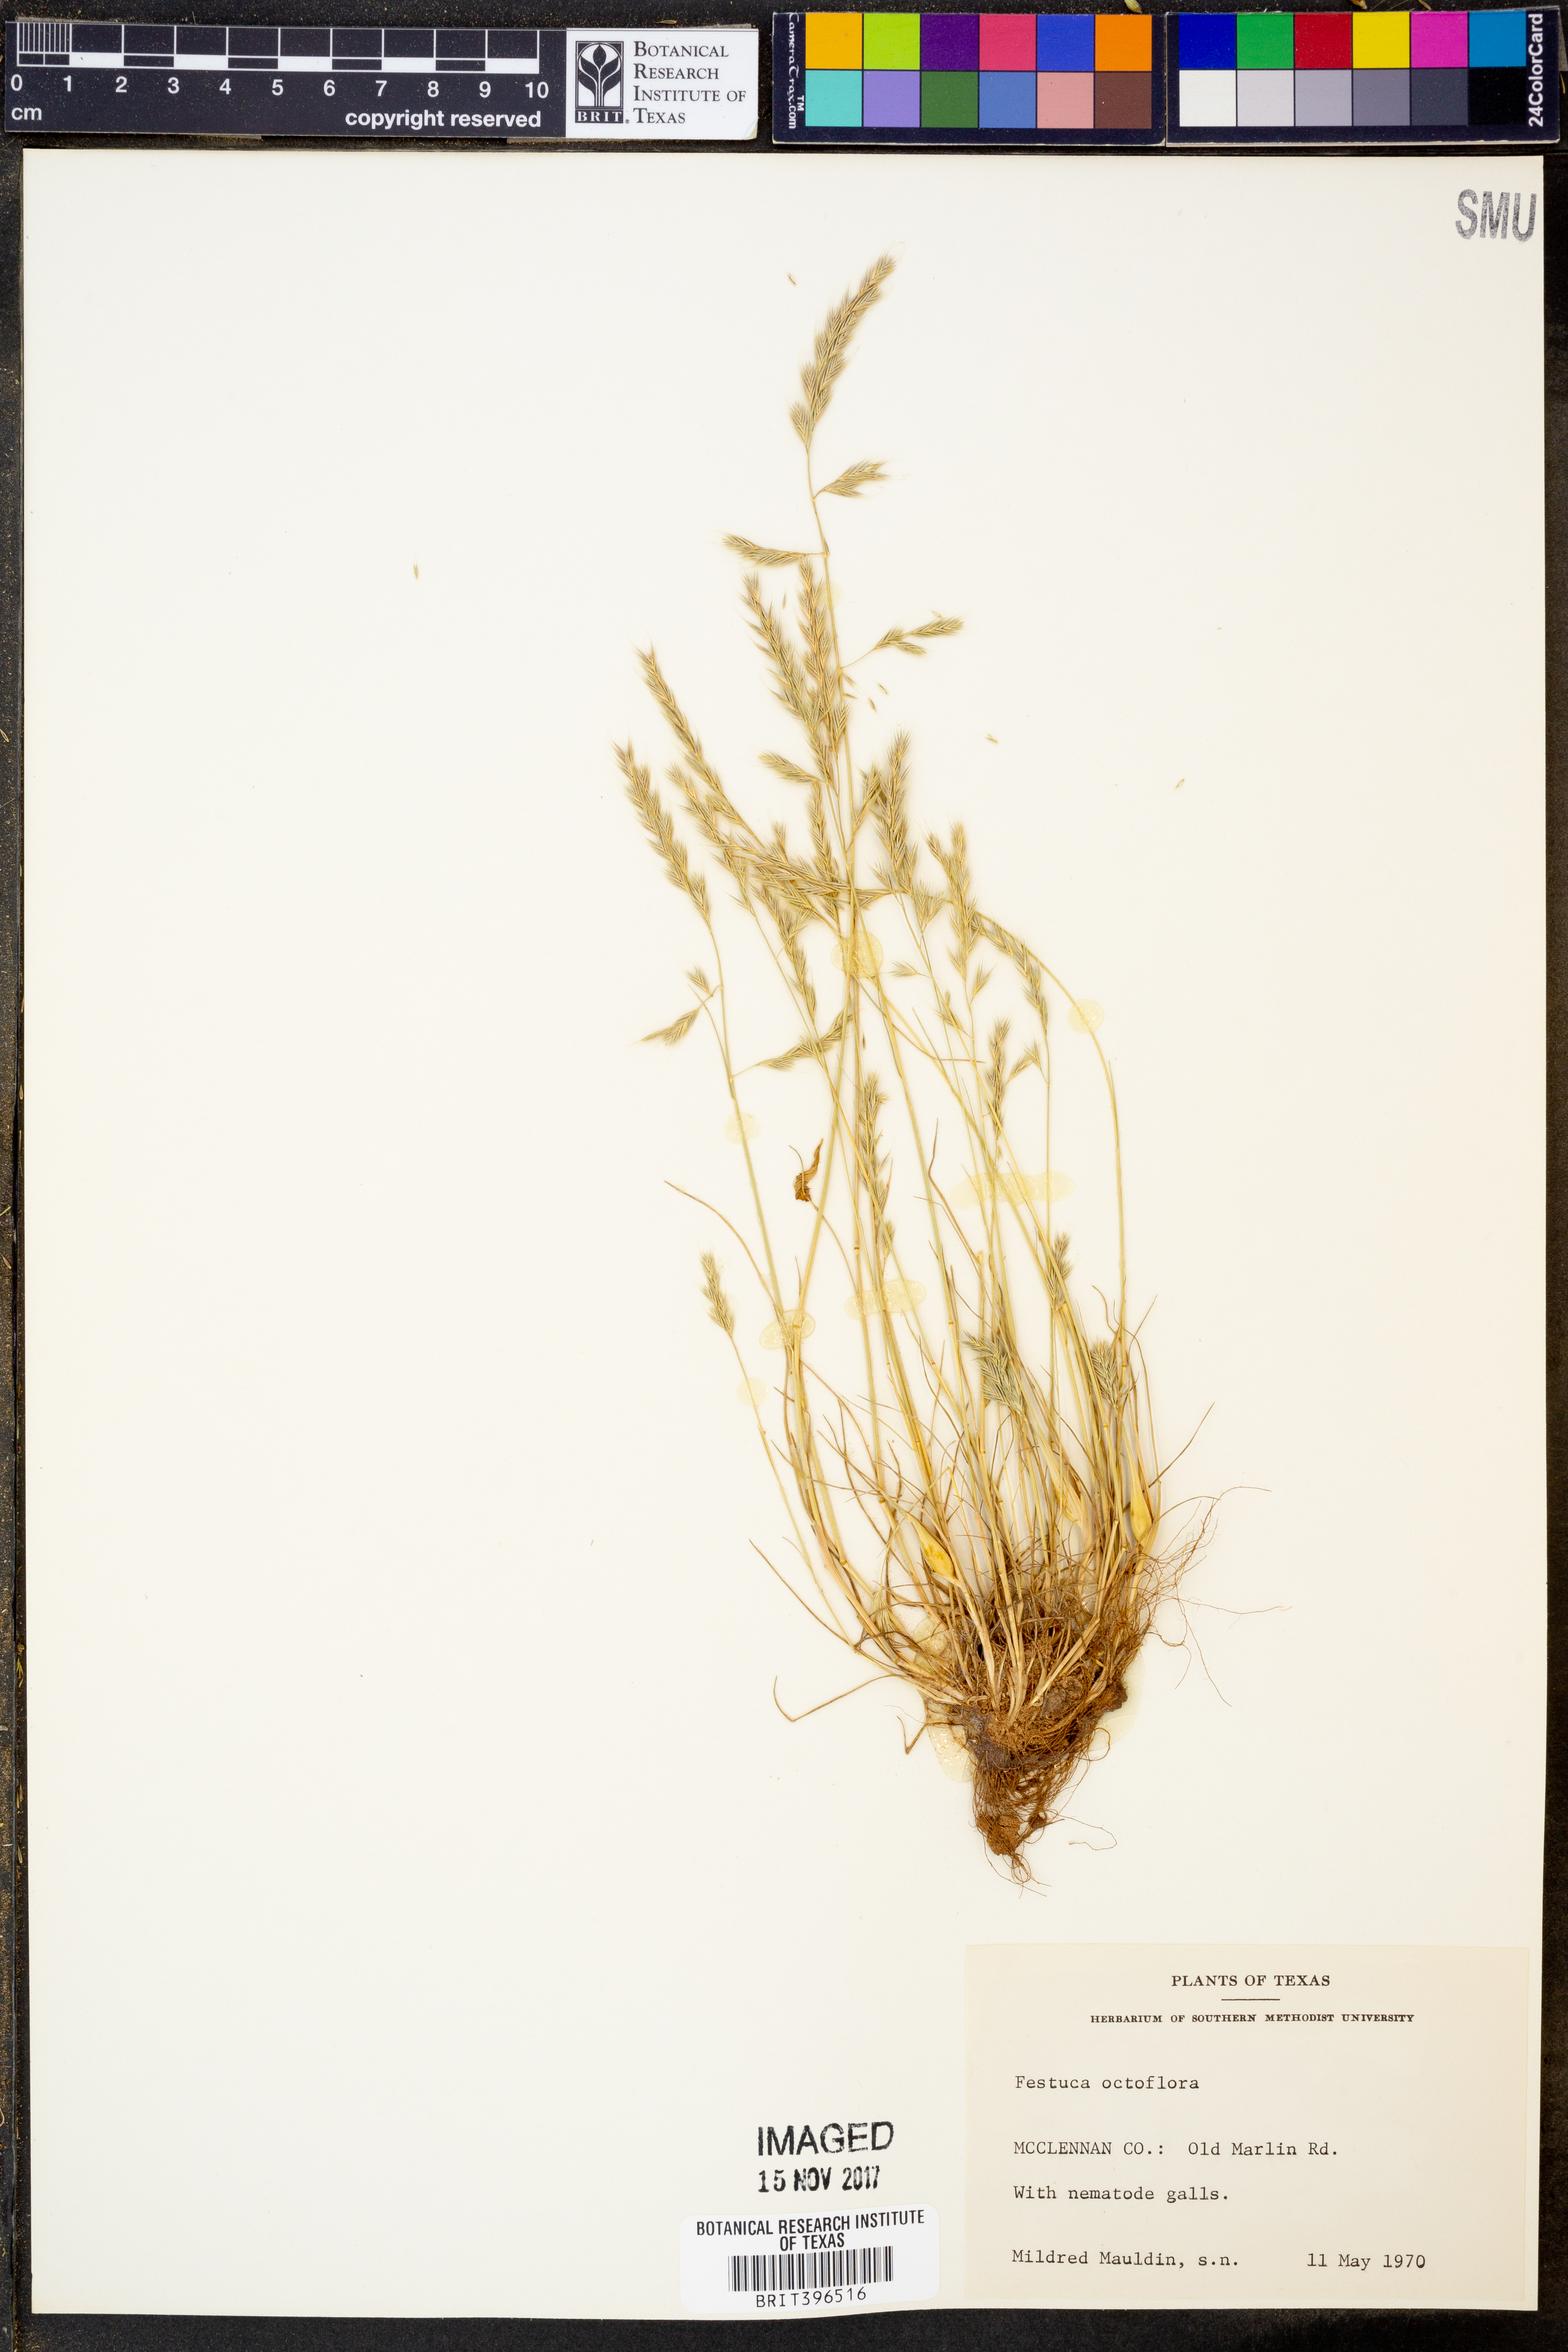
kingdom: Plantae
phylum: Tracheophyta
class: Liliopsida
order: Poales
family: Poaceae
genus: Festuca
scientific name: Festuca octoflora
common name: Sixweeks grass
